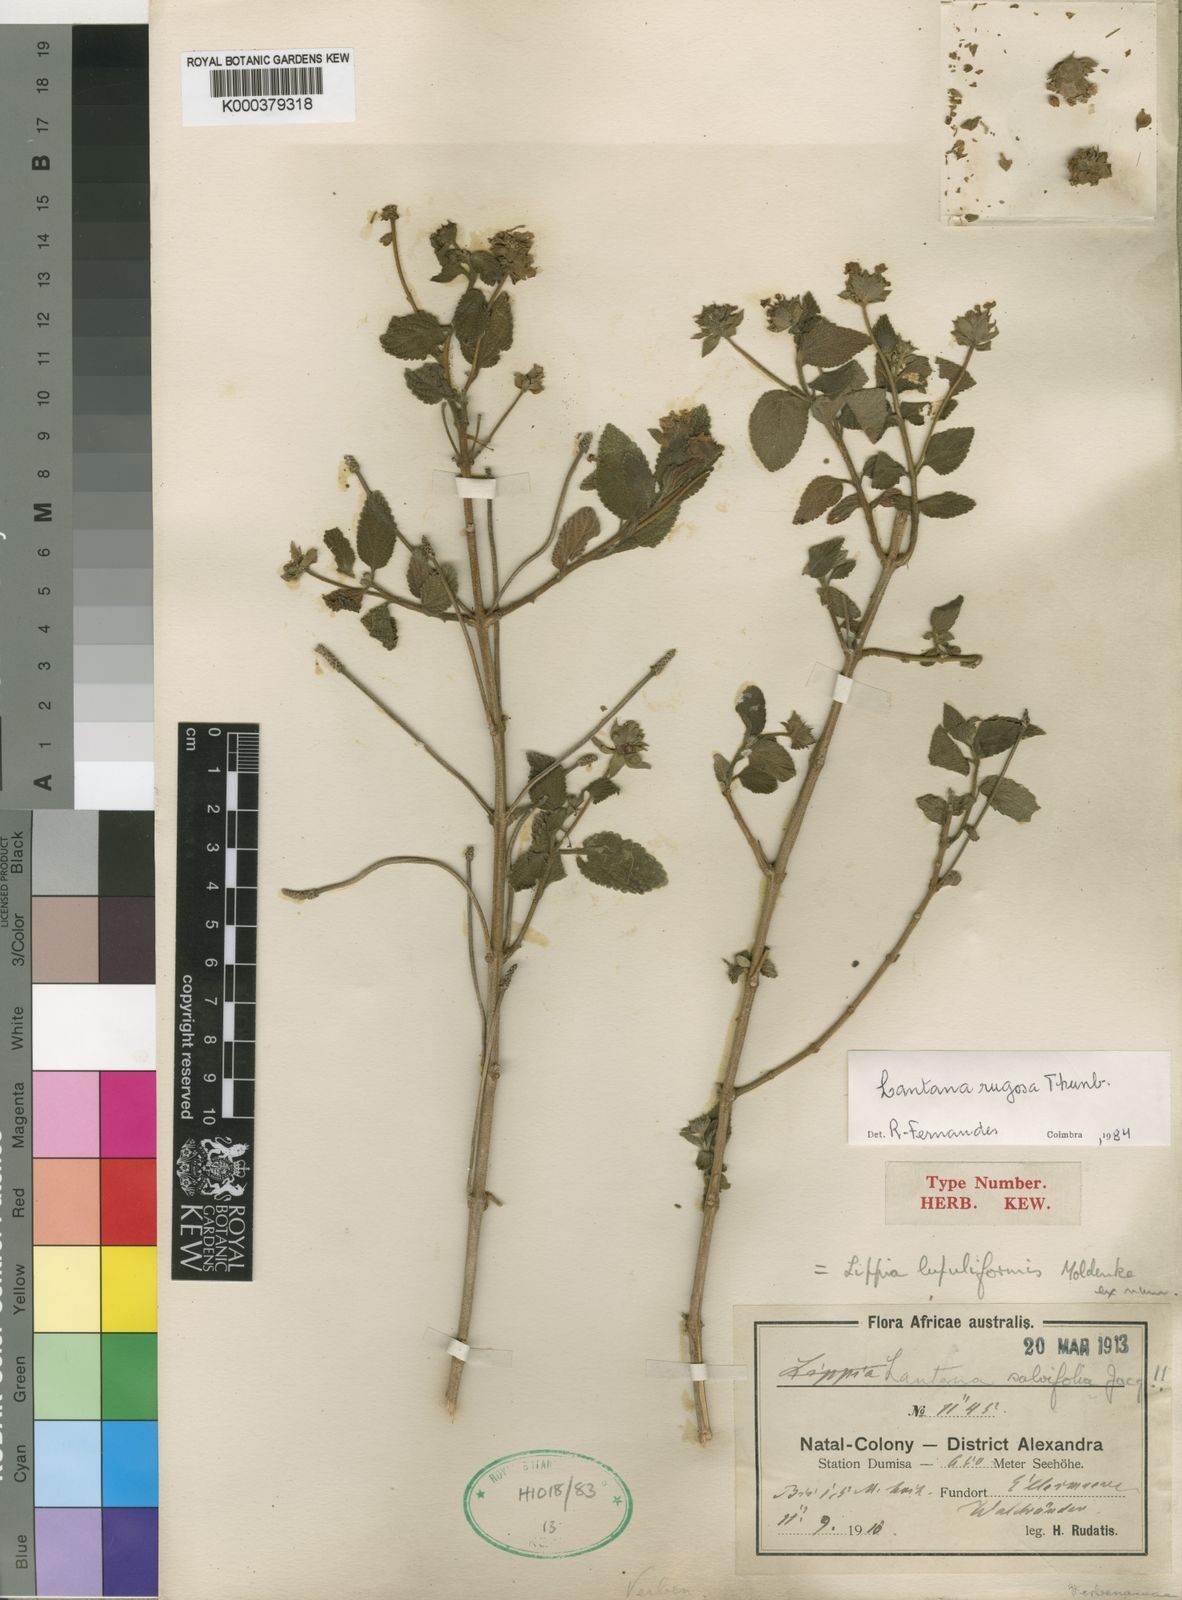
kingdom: Plantae
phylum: Tracheophyta
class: Magnoliopsida
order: Lamiales
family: Verbenaceae
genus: Lantana
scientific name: Lantana rugosa
